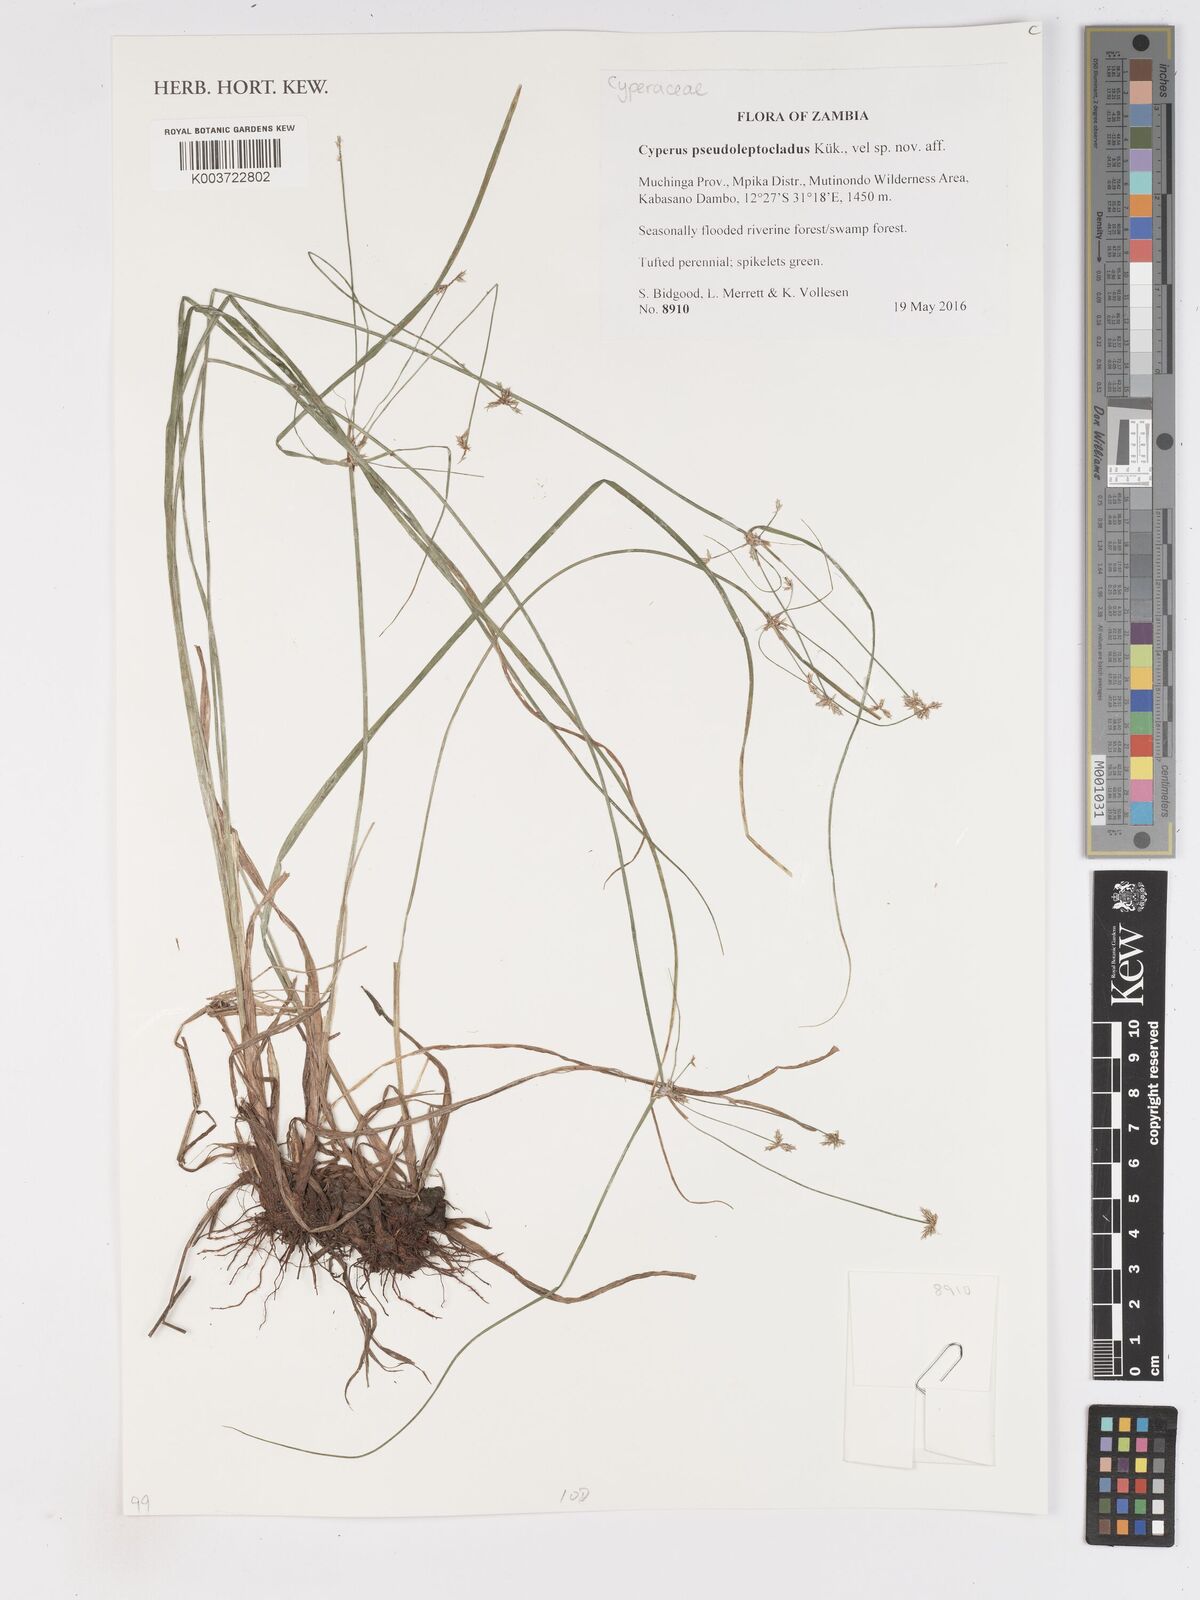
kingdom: Plantae
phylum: Tracheophyta
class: Liliopsida
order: Poales
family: Cyperaceae
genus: Cyperus
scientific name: Cyperus glaucophyllus
